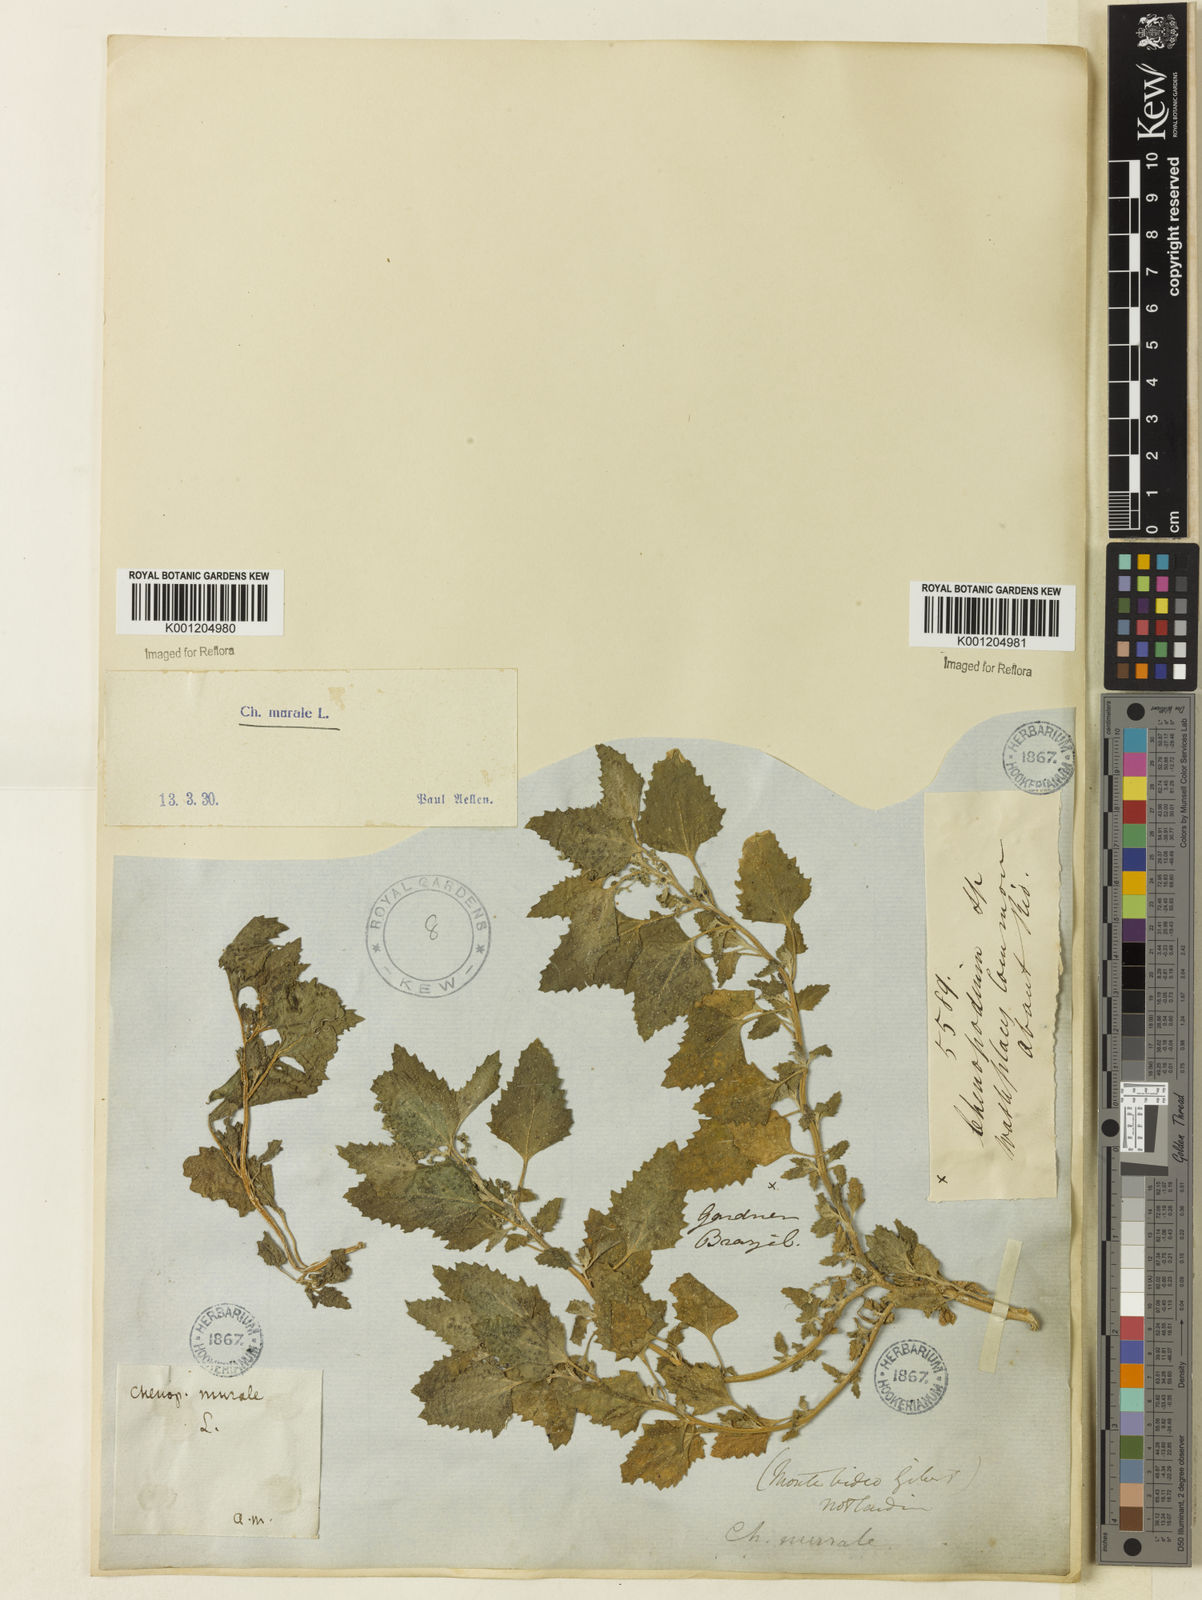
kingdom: Plantae
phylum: Tracheophyta
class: Magnoliopsida
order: Caryophyllales
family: Amaranthaceae
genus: Chenopodiastrum
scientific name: Chenopodiastrum murale
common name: Sowbane
